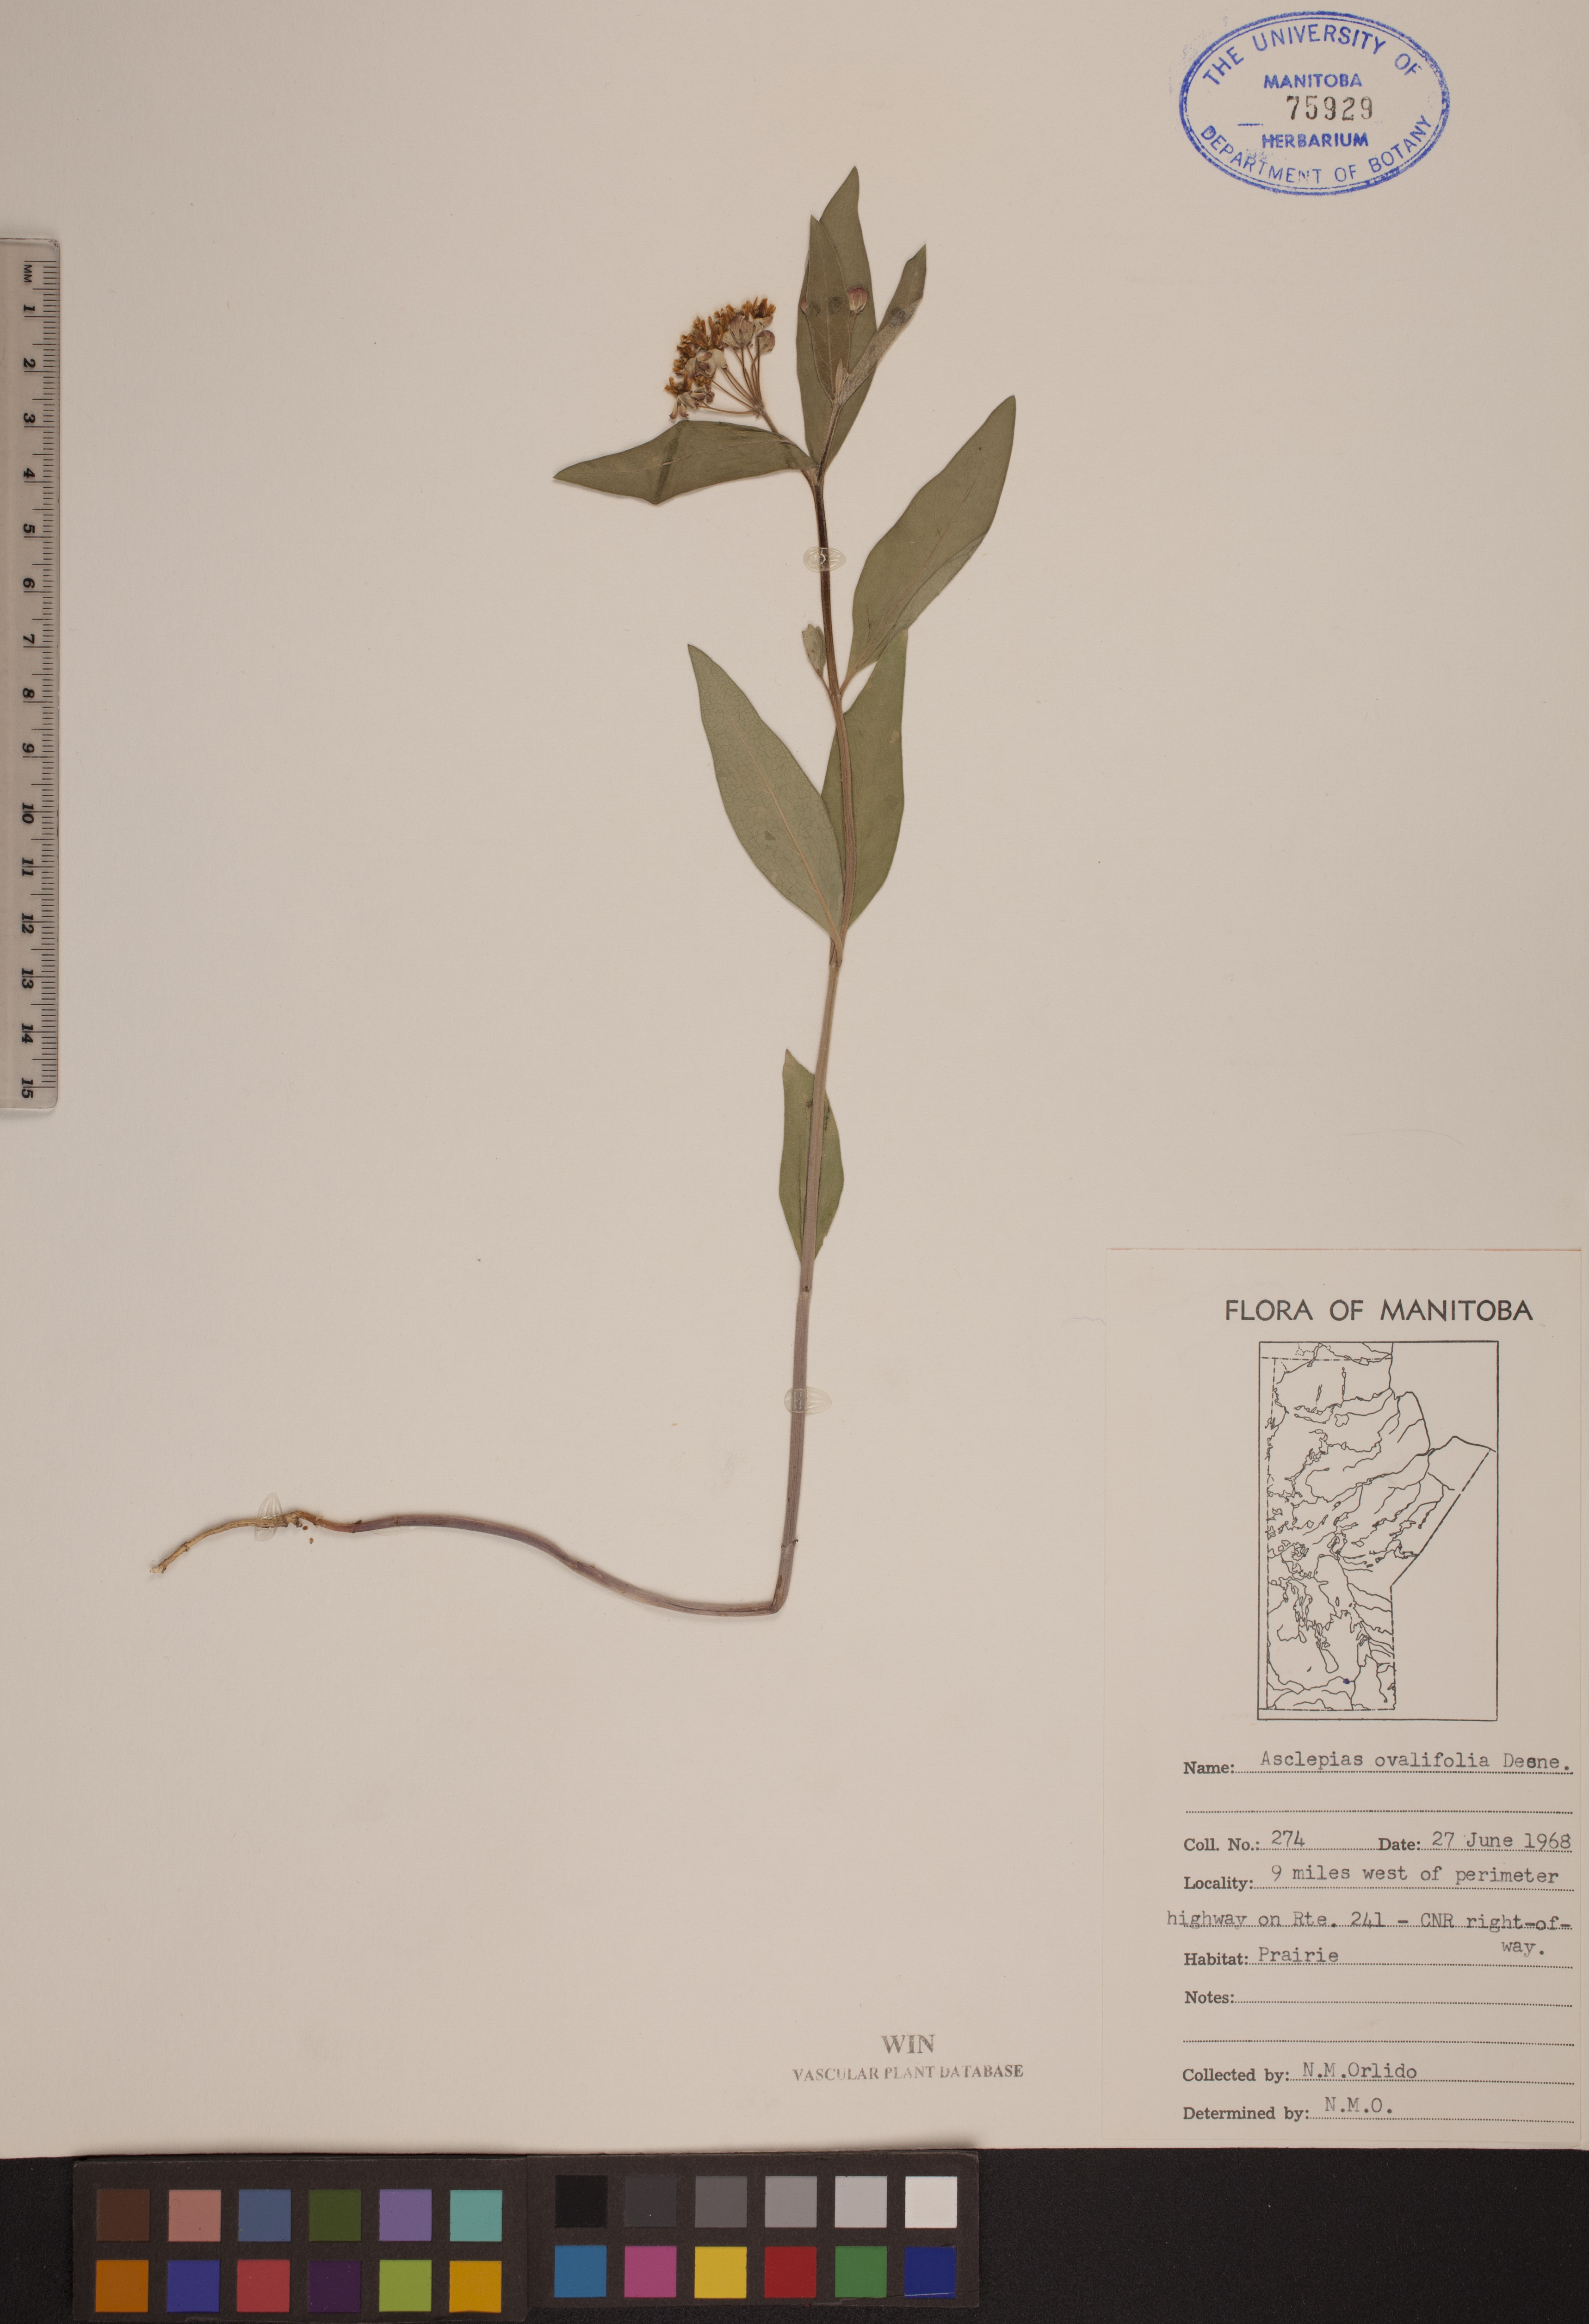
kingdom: Plantae
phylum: Tracheophyta
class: Magnoliopsida
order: Gentianales
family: Apocynaceae
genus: Asclepias
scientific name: Asclepias ovalifolia
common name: Dwarf milkweed
